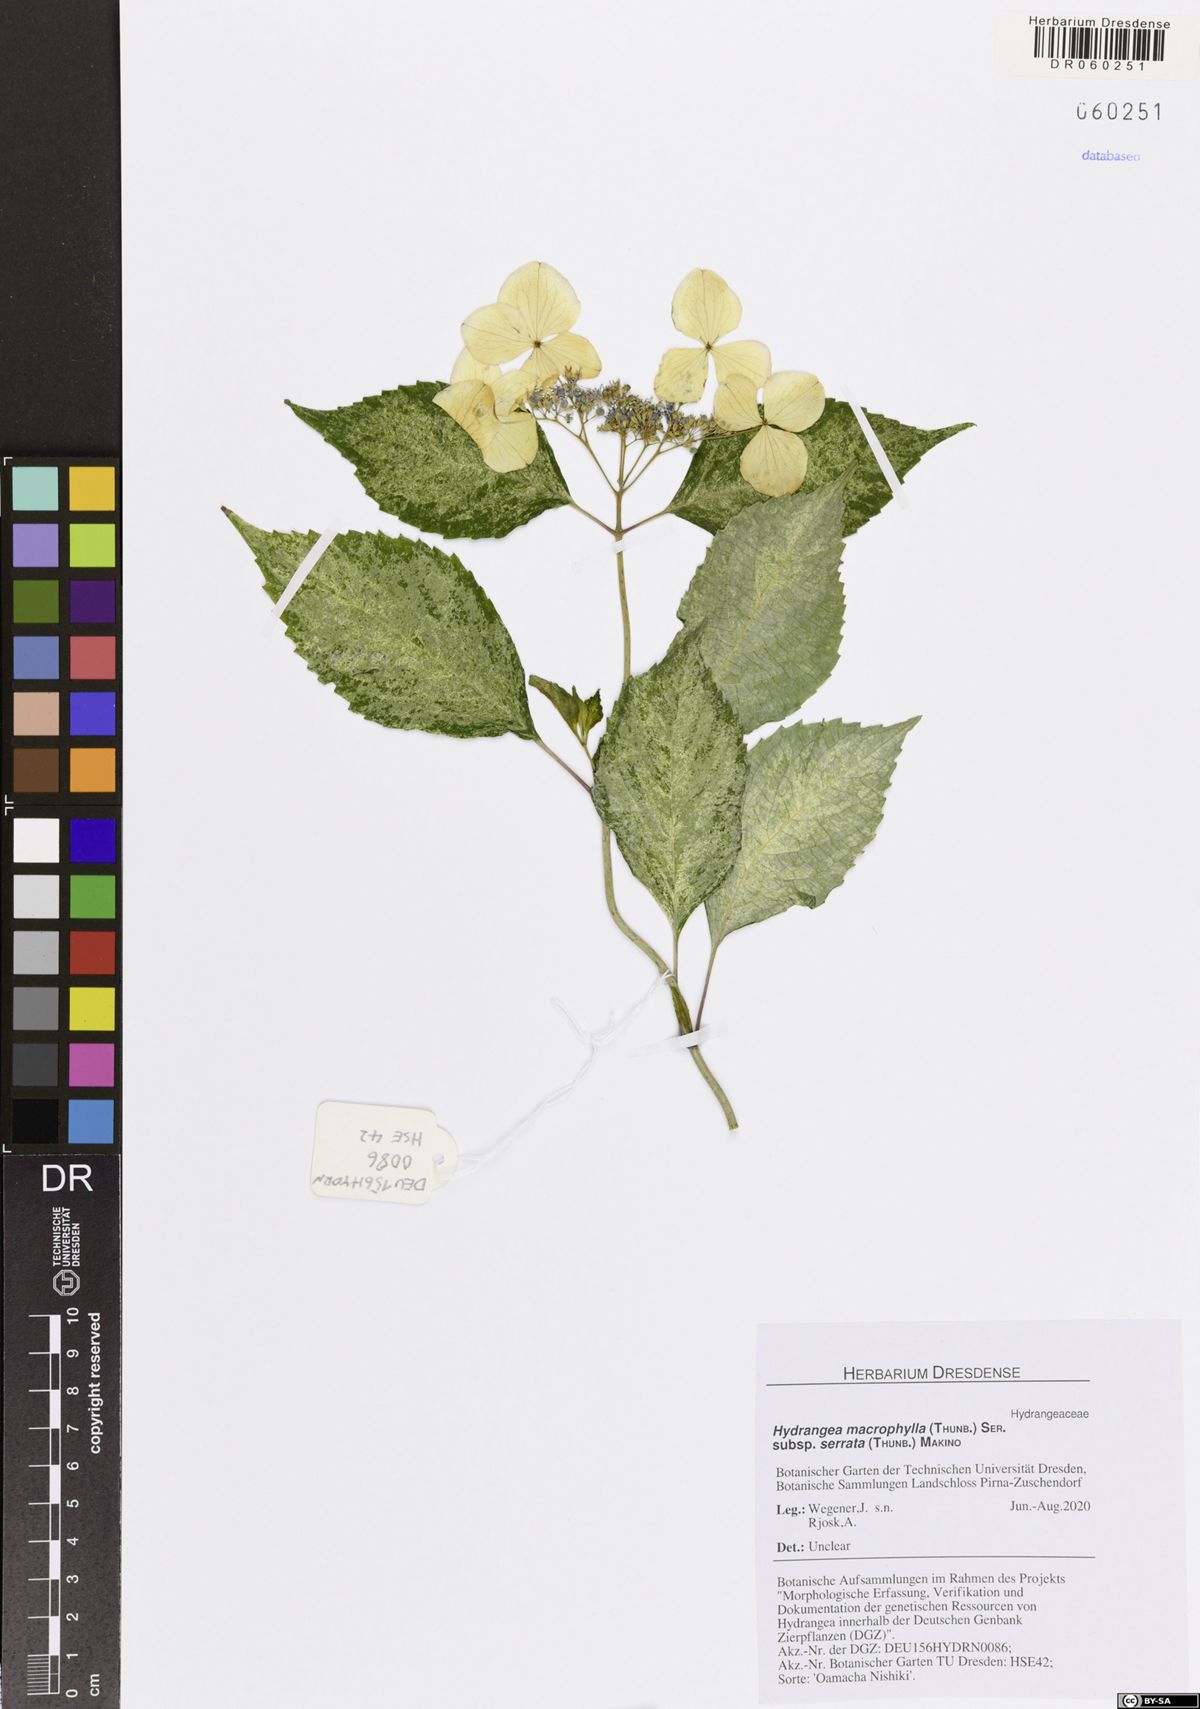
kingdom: Plantae
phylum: Tracheophyta
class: Magnoliopsida
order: Cornales
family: Hydrangeaceae
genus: Hydrangea
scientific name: Hydrangea serrata
